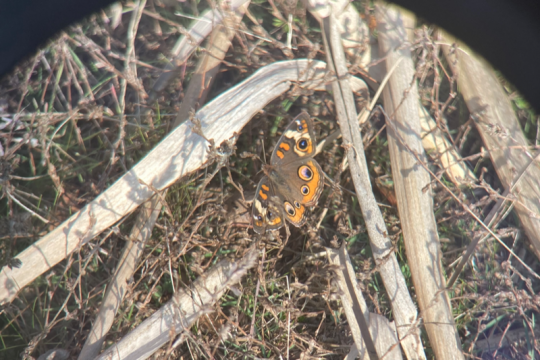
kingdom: Animalia
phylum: Arthropoda
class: Insecta
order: Lepidoptera
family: Nymphalidae
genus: Junonia
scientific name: Junonia coenia
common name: Common Buckeye
